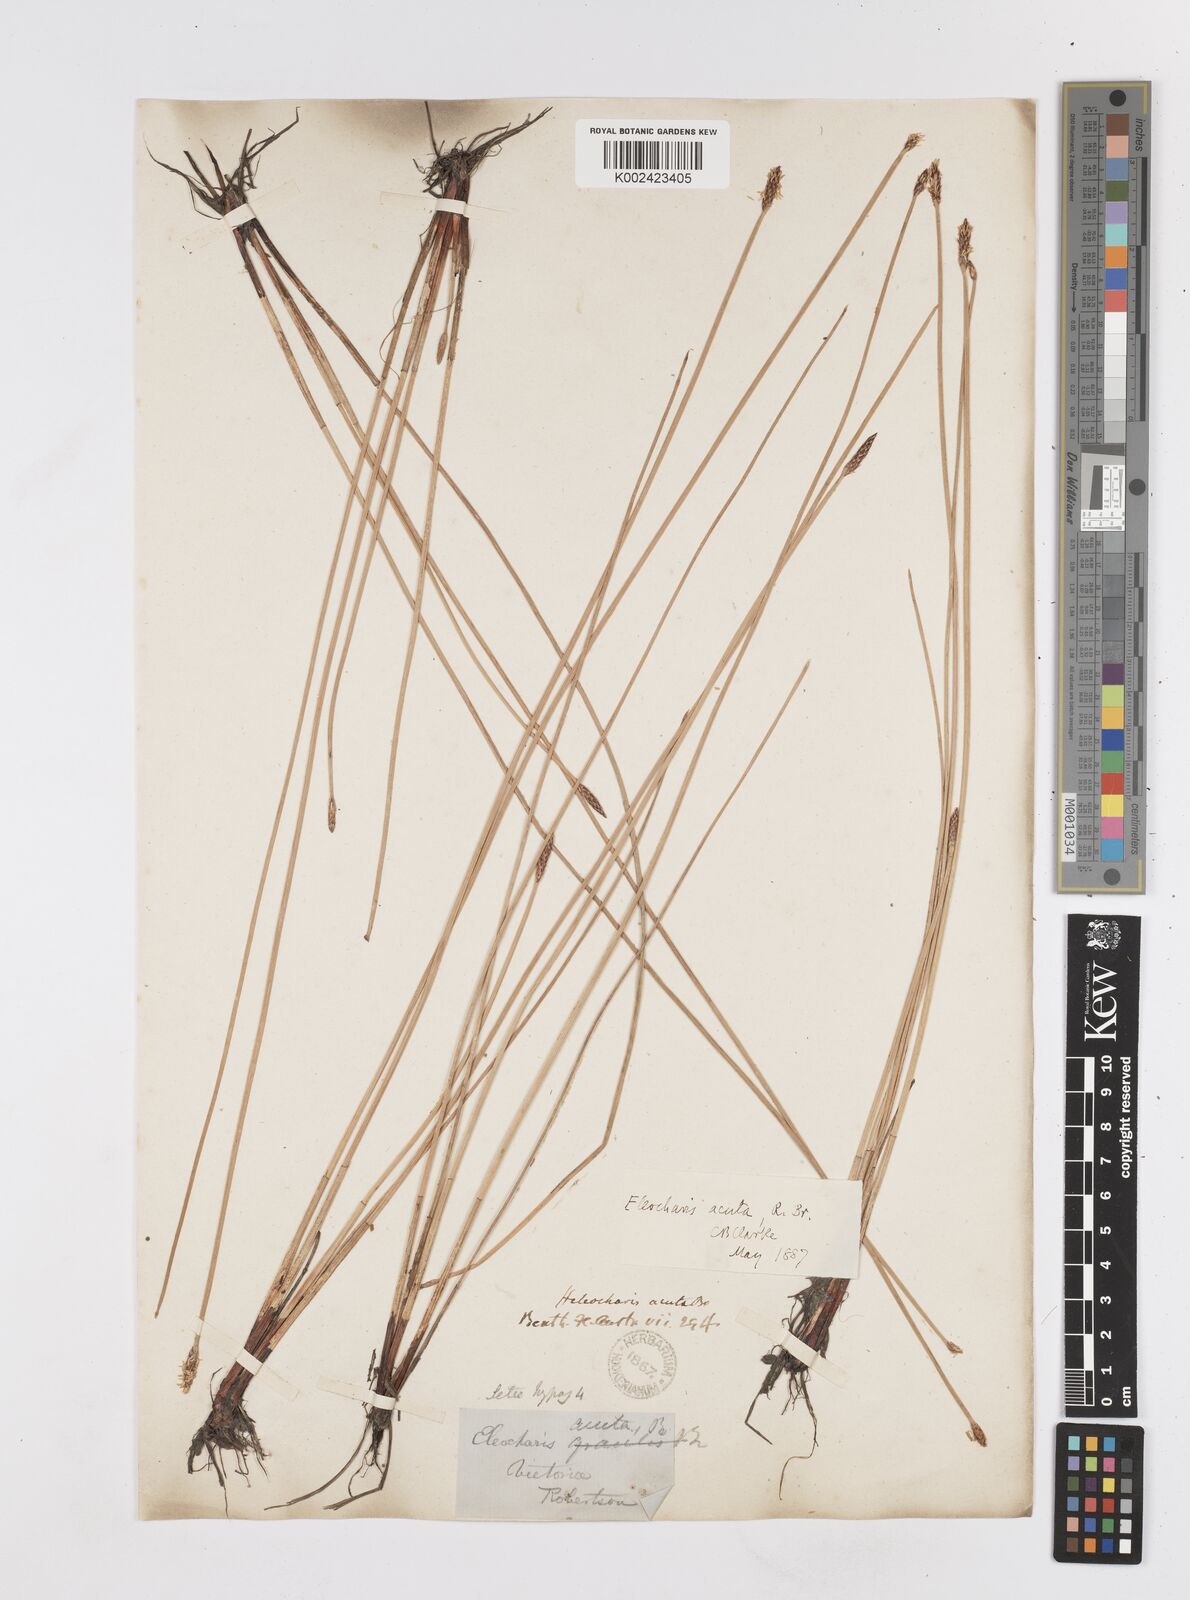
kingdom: Plantae
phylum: Tracheophyta
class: Liliopsida
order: Poales
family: Cyperaceae
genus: Eleocharis
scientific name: Eleocharis acuta
